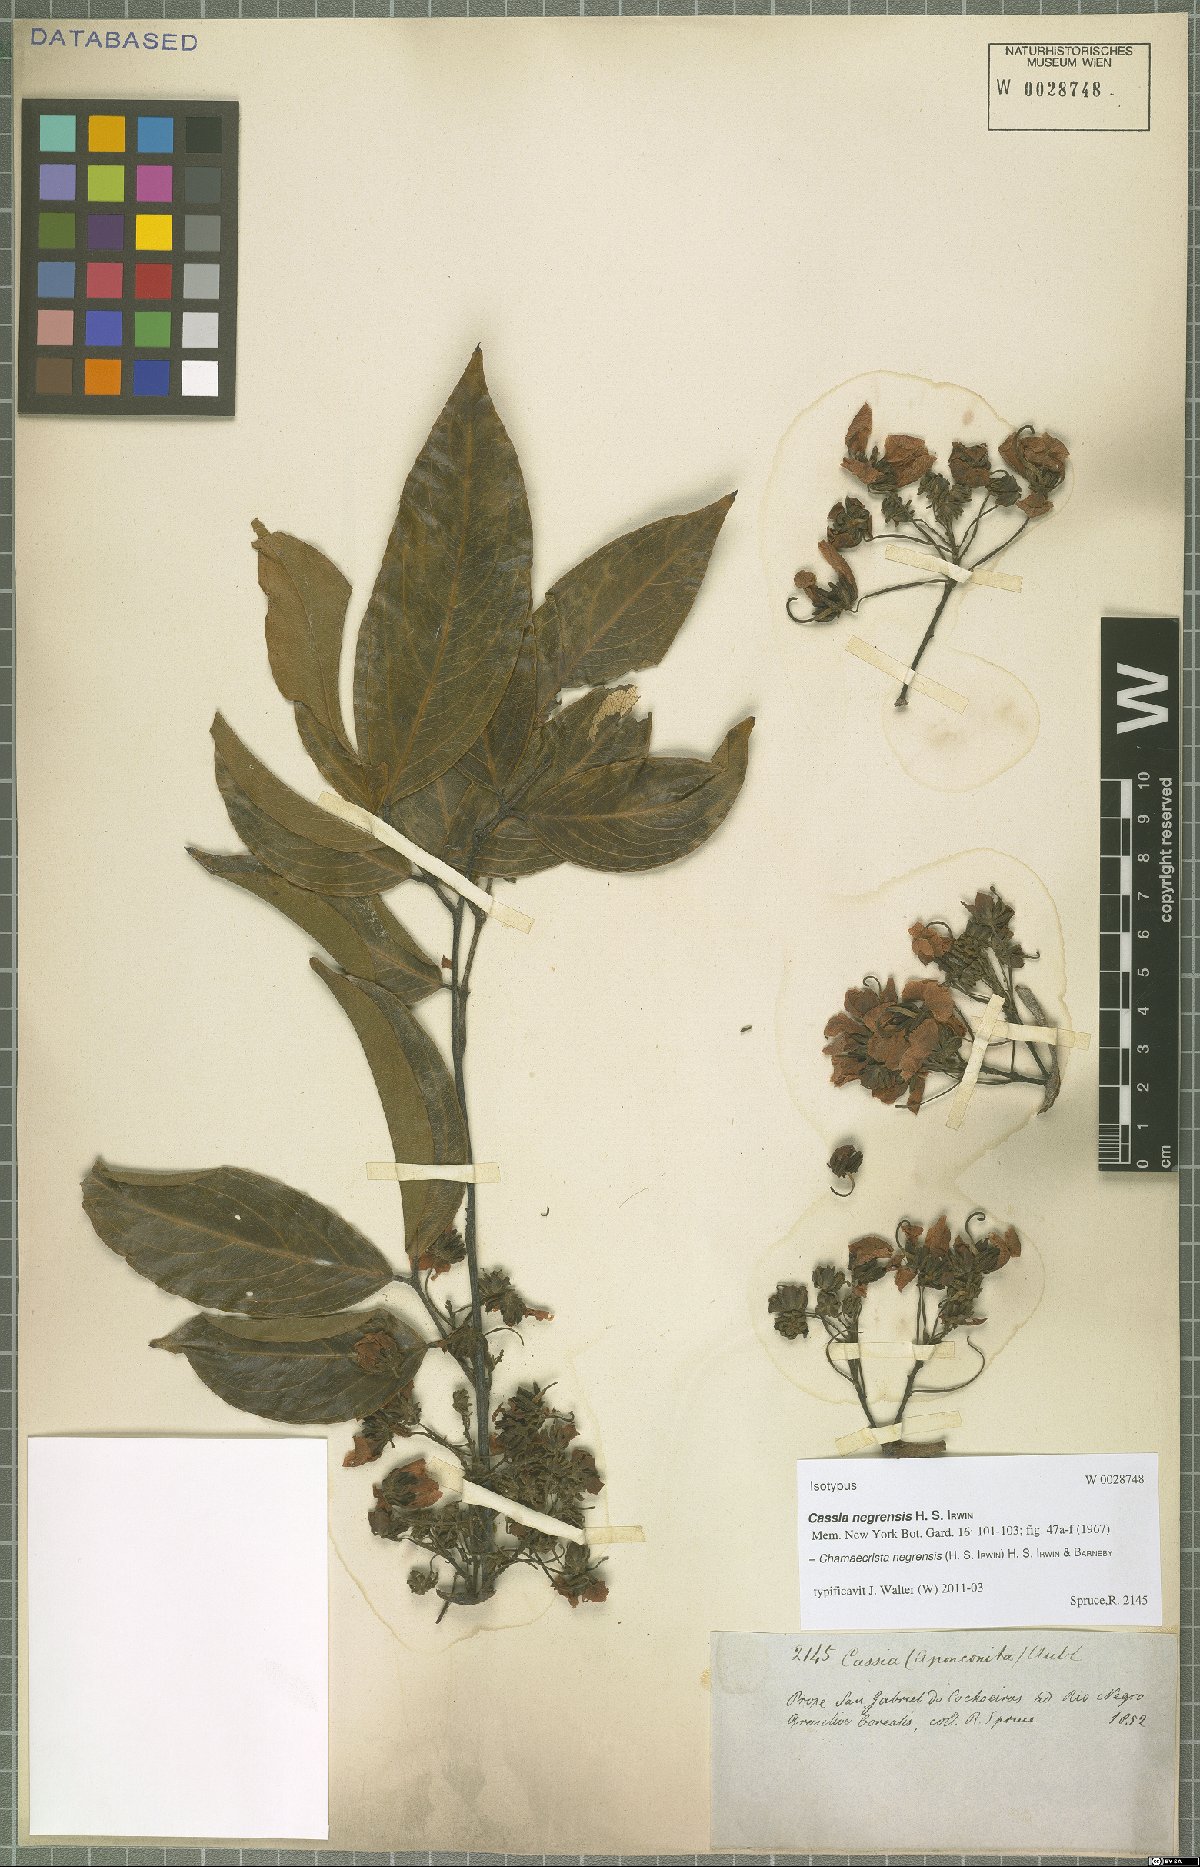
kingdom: Plantae
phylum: Tracheophyta
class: Magnoliopsida
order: Fabales
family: Fabaceae
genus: Chamaecrista
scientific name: Chamaecrista negrensis
